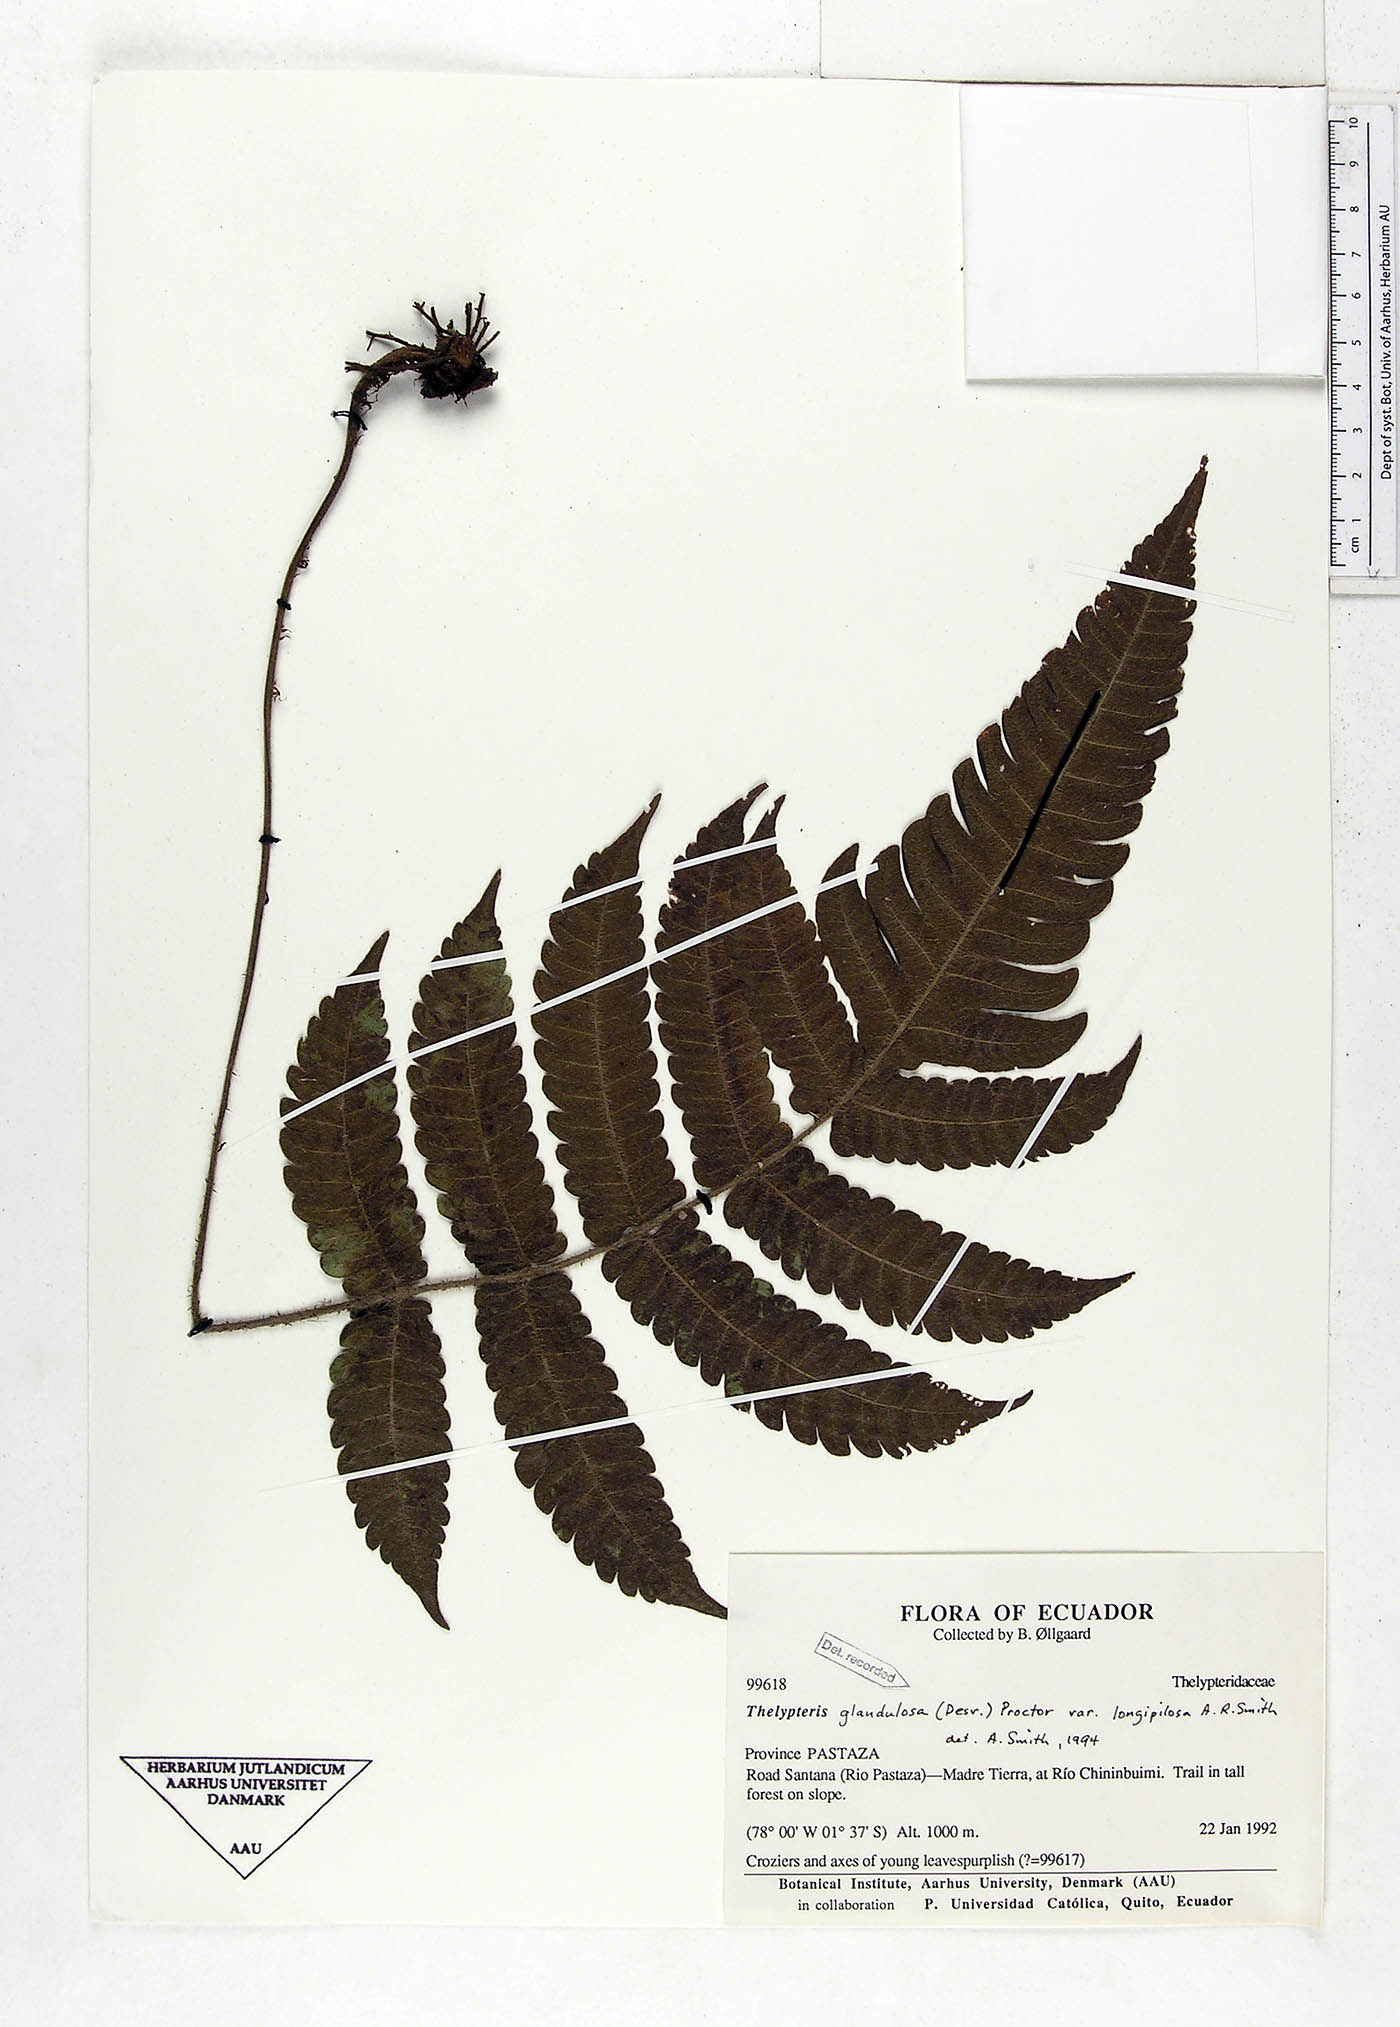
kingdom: Plantae
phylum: Tracheophyta
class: Polypodiopsida
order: Polypodiales
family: Thelypteridaceae
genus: Steiropteris
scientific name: Steiropteris glandulosa
